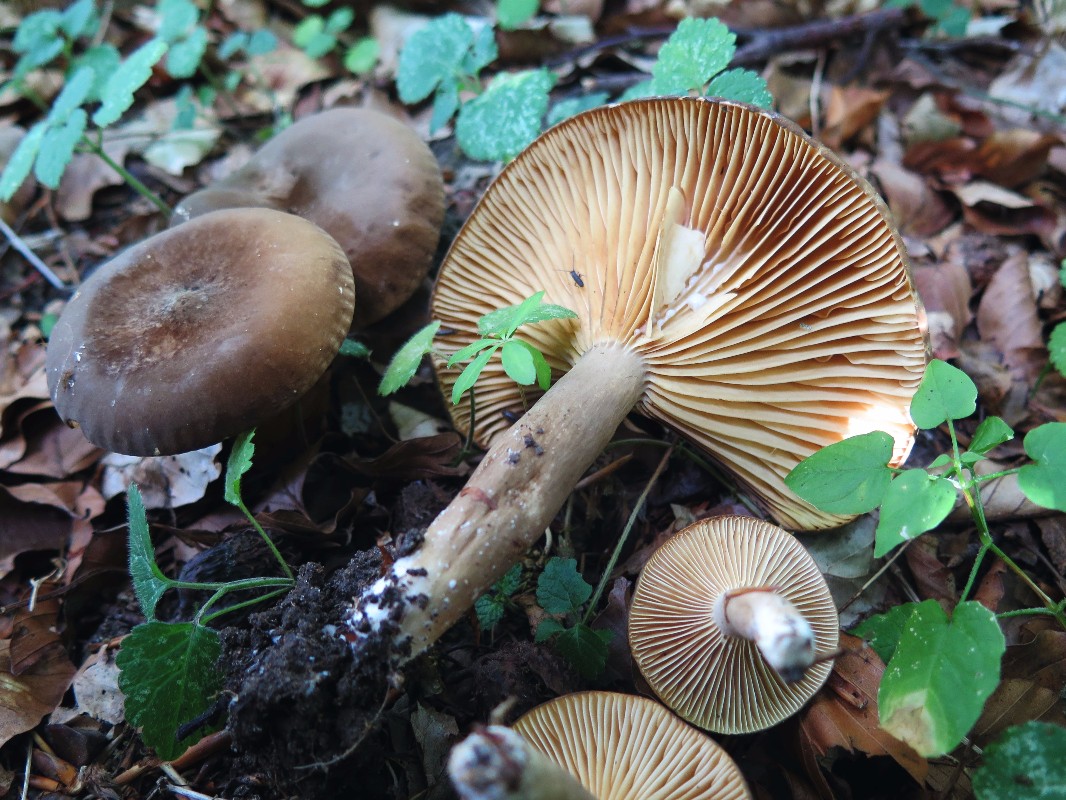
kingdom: Fungi
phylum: Basidiomycota
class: Agaricomycetes
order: Russulales
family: Russulaceae
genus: Lactarius
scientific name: Lactarius romagnesii
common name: fjernbladet mælkehat
